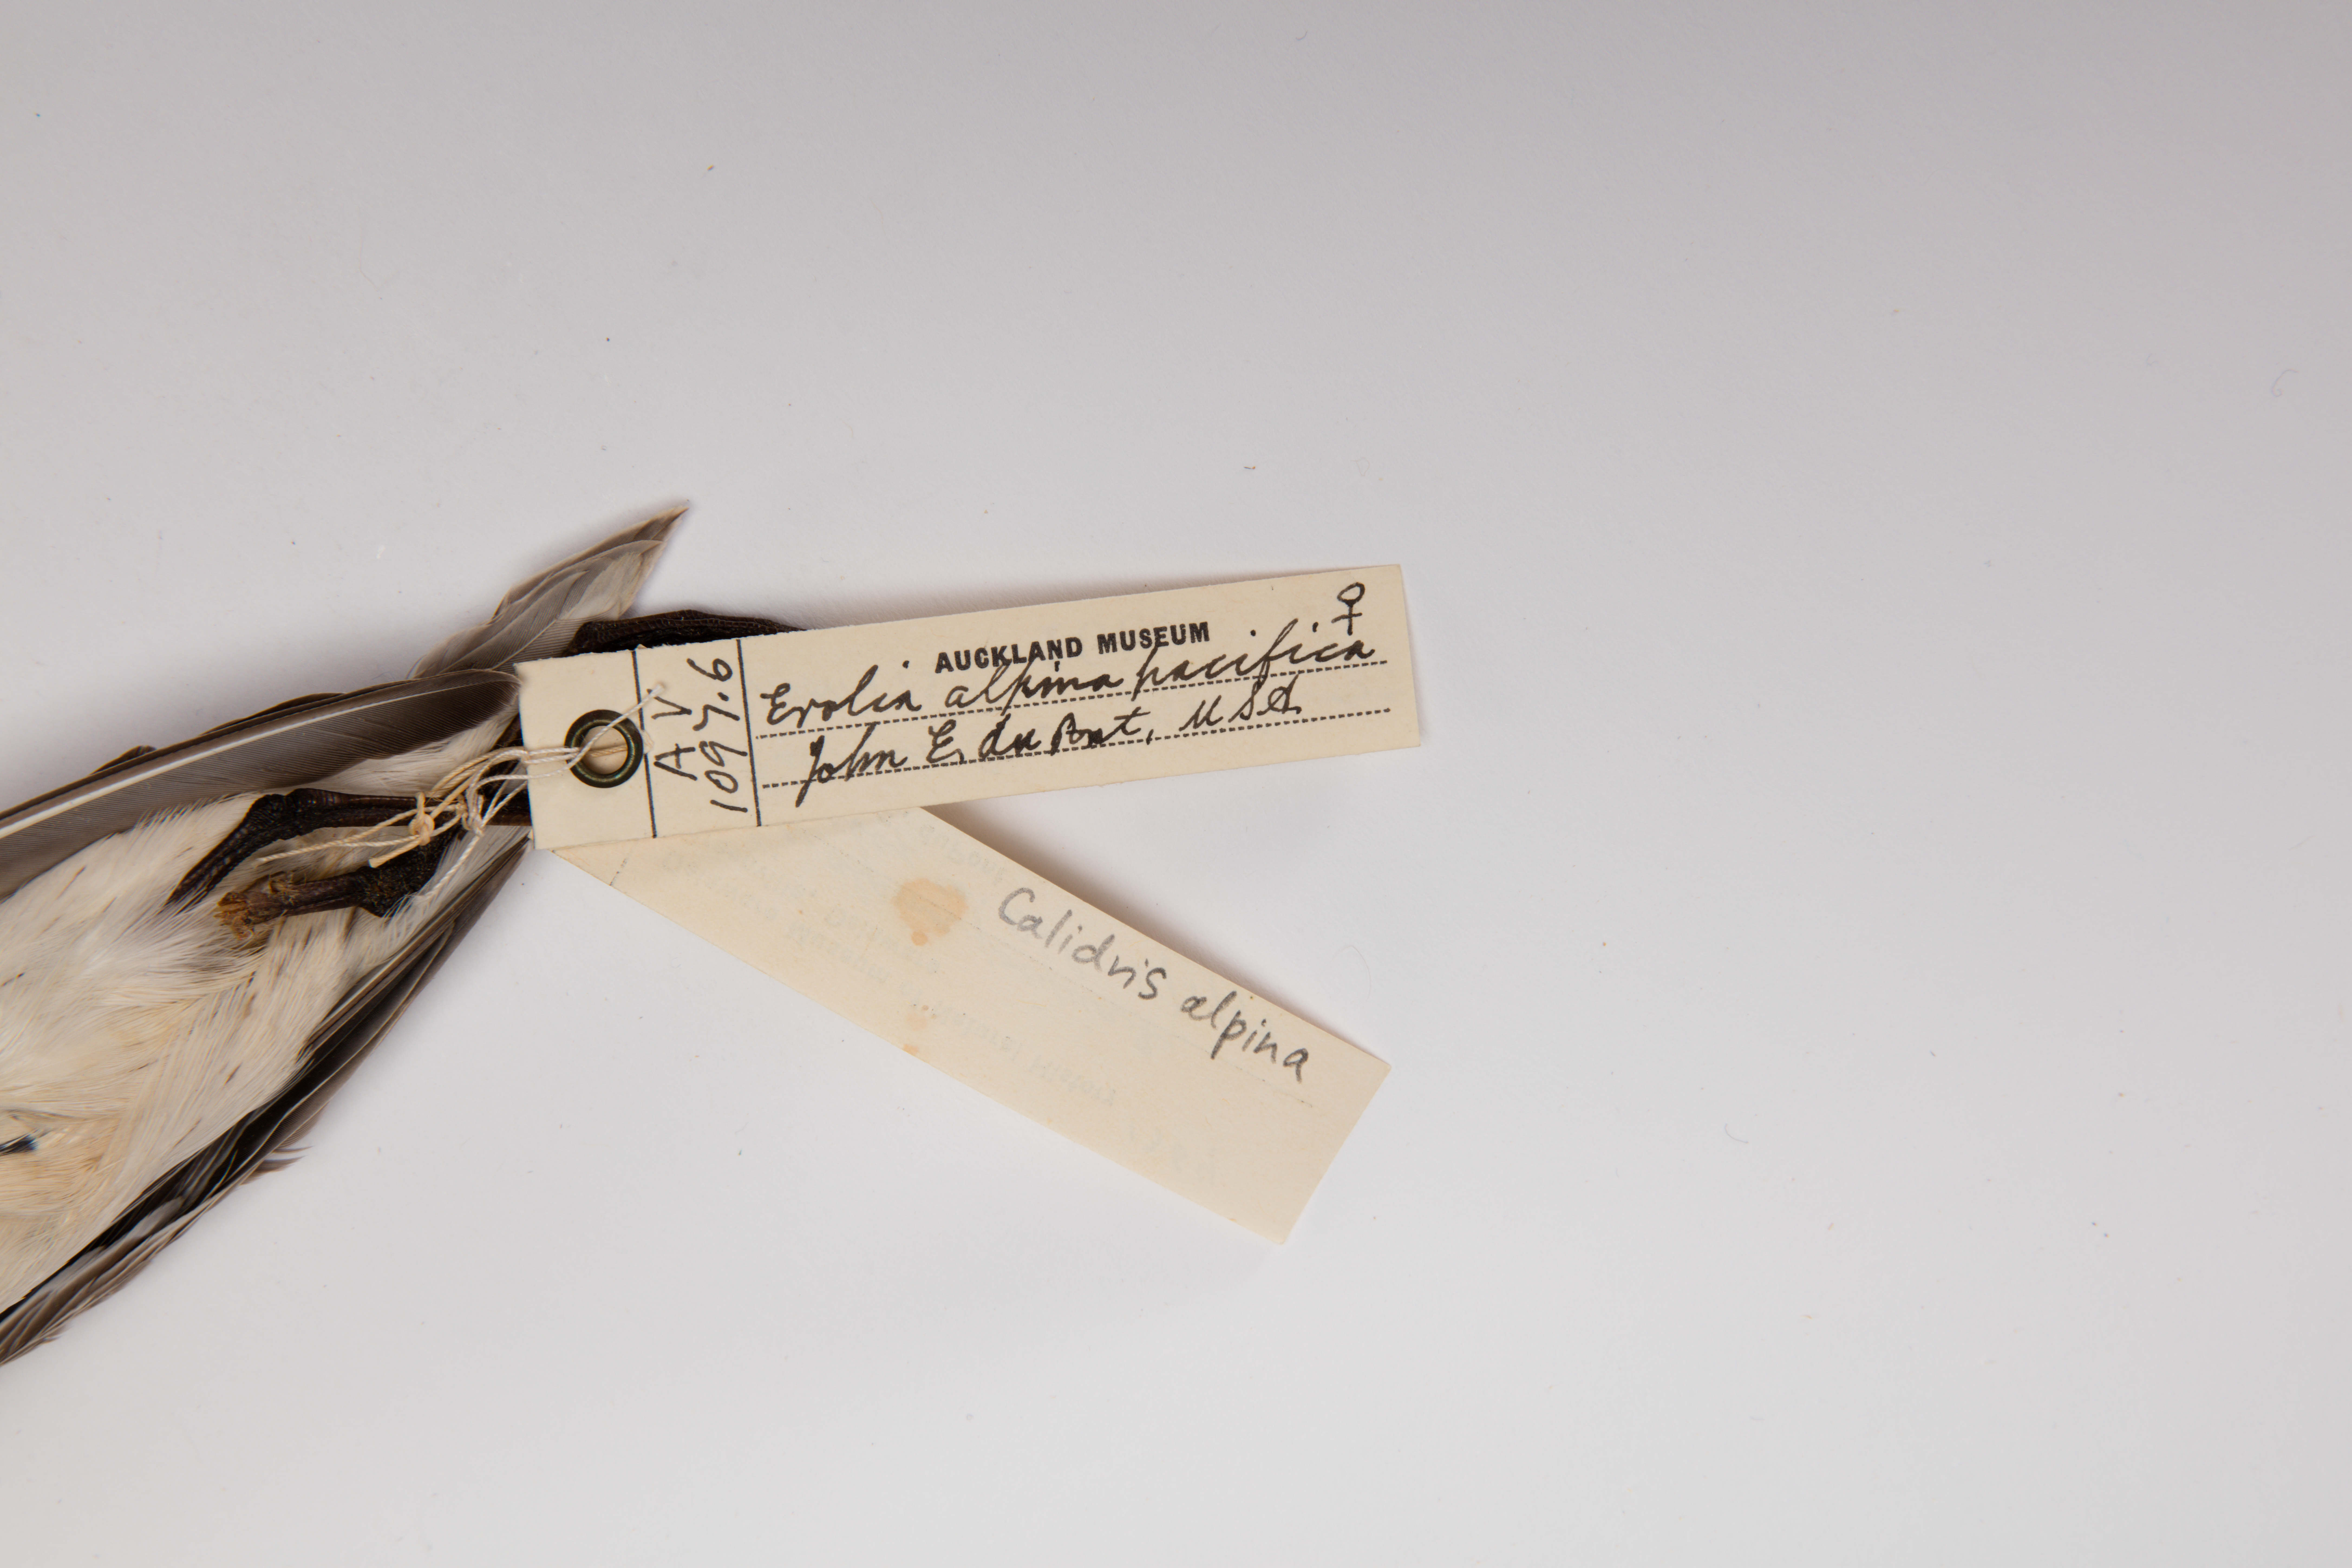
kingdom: Animalia
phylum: Chordata
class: Aves
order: Charadriiformes
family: Scolopacidae
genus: Calidris
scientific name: Calidris alpina
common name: Dunlin
